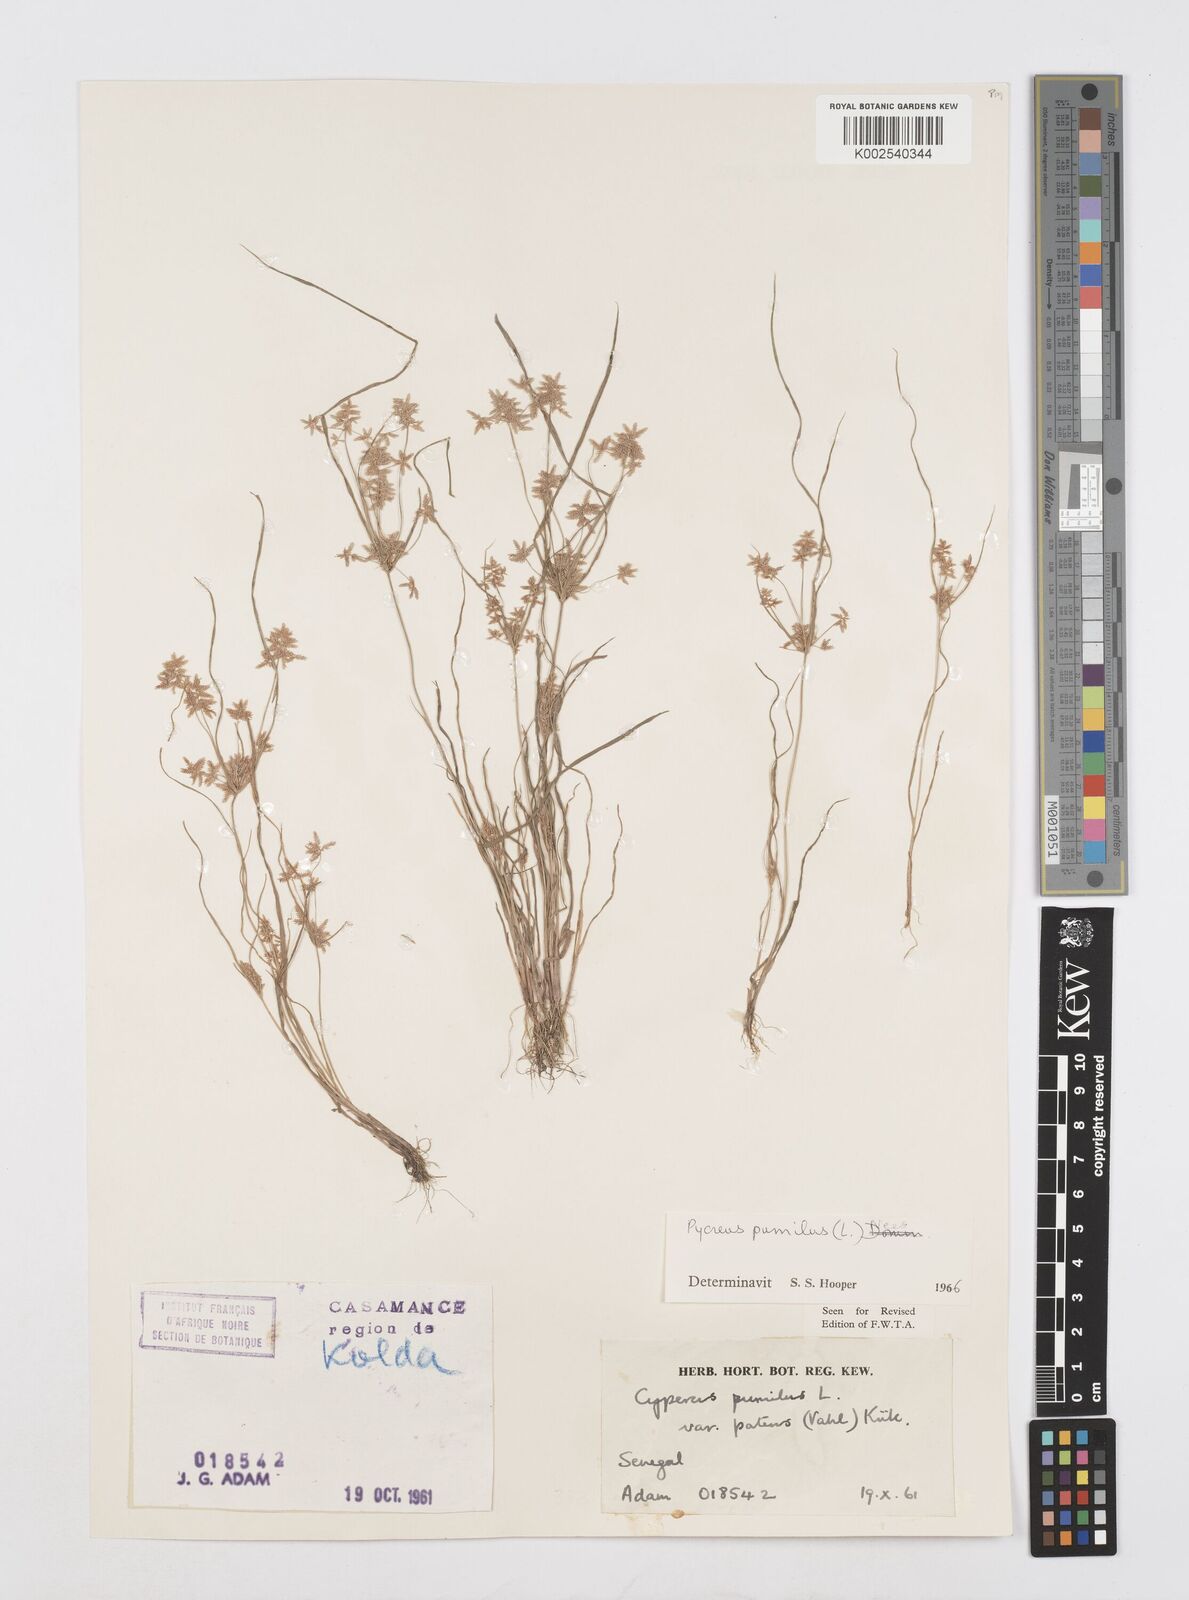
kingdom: Plantae
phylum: Tracheophyta
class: Liliopsida
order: Poales
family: Cyperaceae
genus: Cyperus
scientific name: Cyperus pumilus
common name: Low flatsedge
